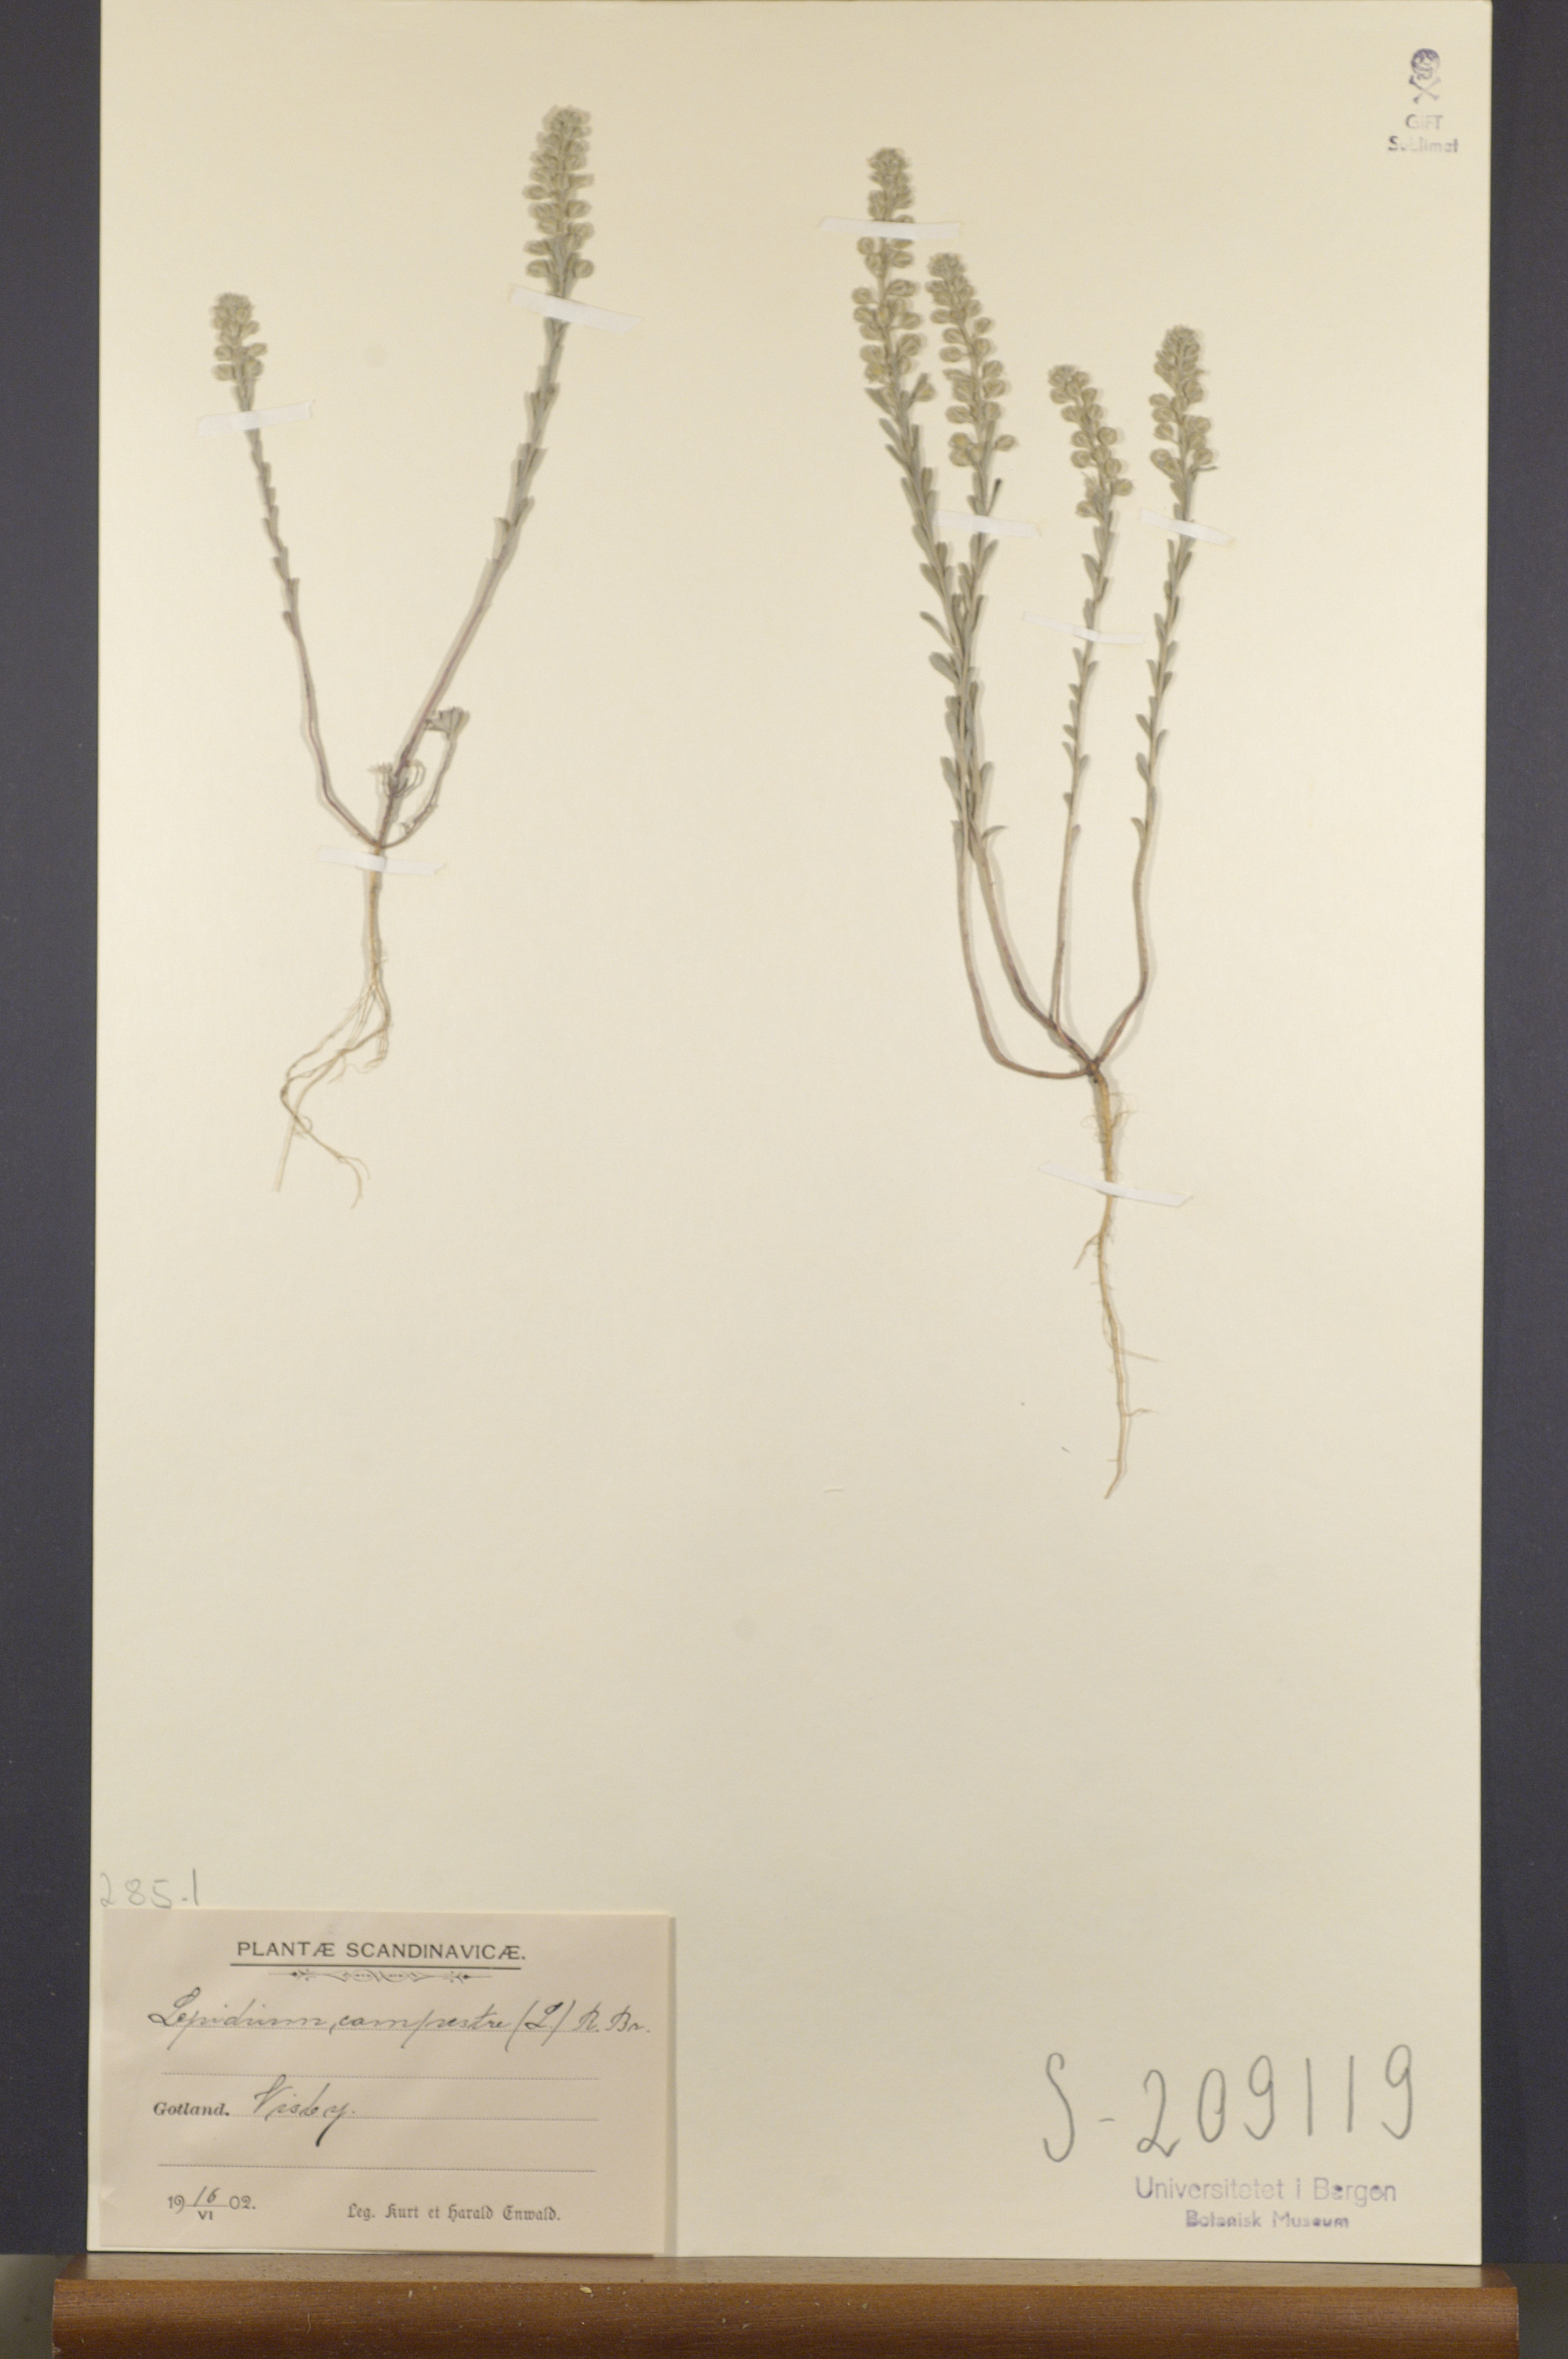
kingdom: Plantae
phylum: Tracheophyta
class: Magnoliopsida
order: Brassicales
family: Brassicaceae
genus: Lepidium
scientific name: Lepidium campestre
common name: Field pepperwort
